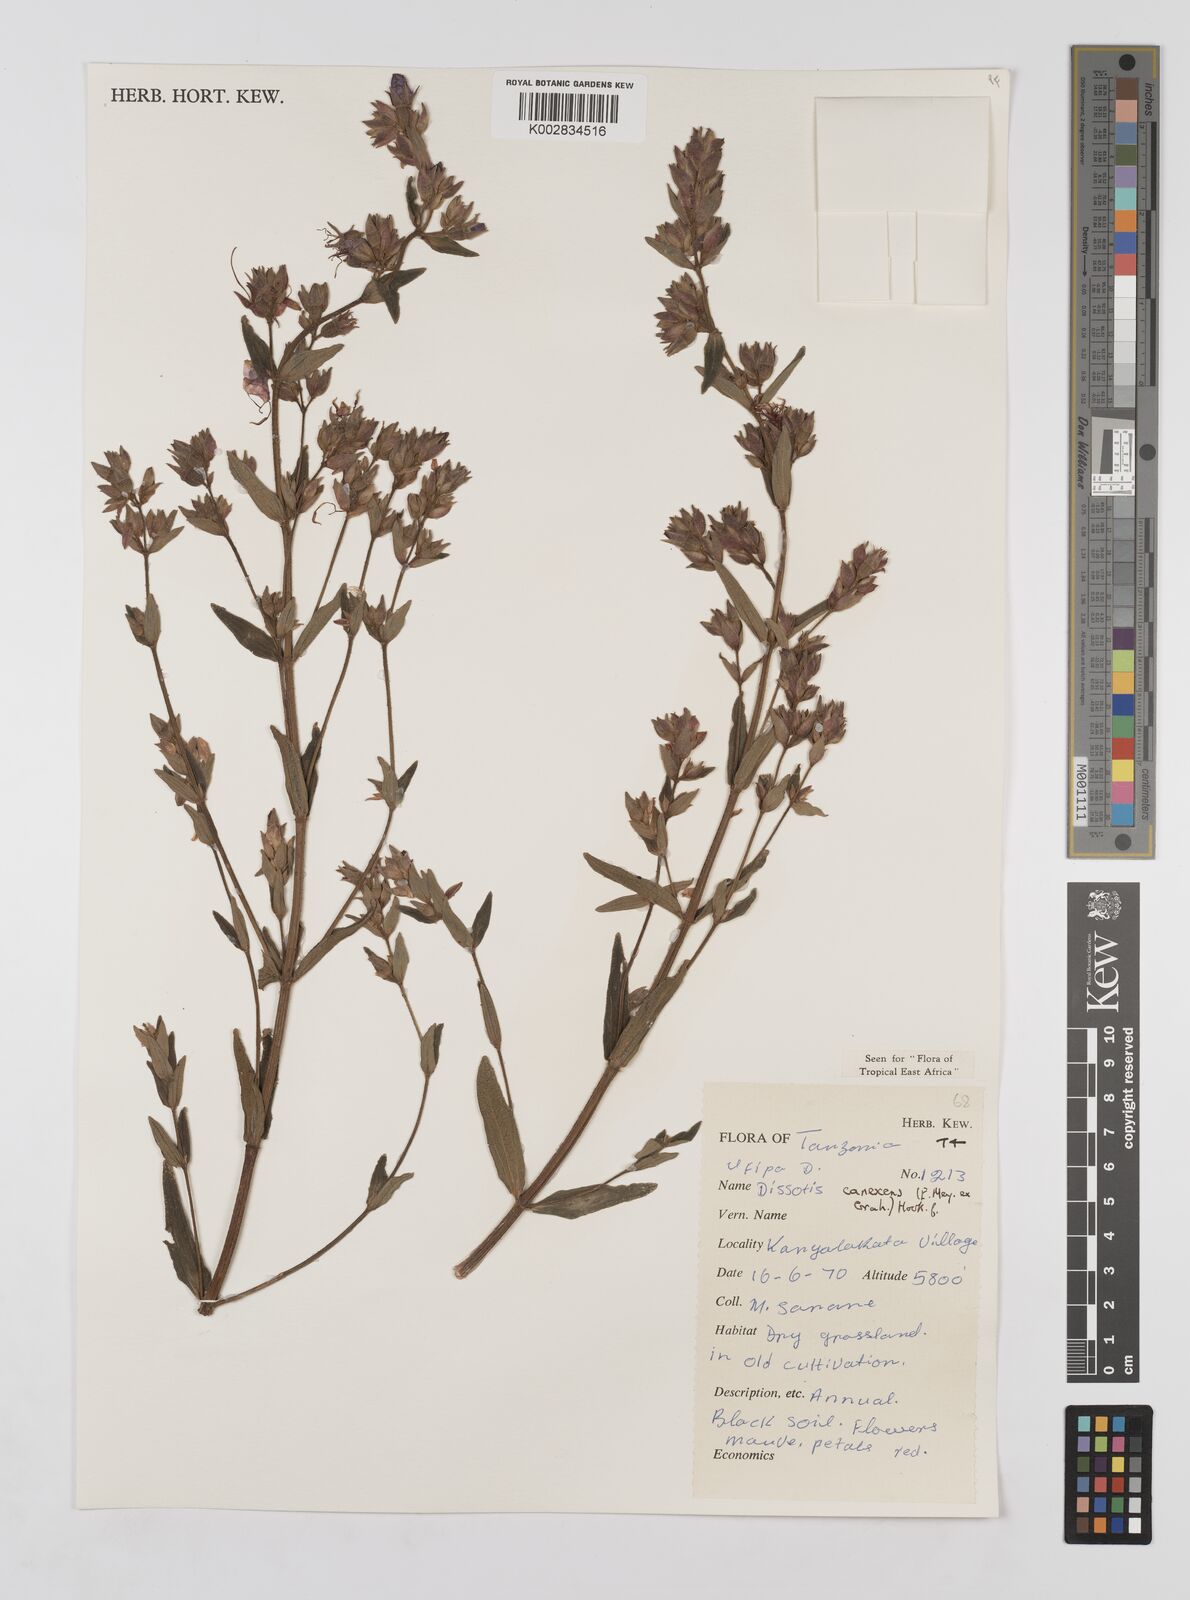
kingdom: Plantae
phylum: Tracheophyta
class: Magnoliopsida
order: Myrtales
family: Melastomataceae
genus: Argyrella
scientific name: Argyrella canescens
